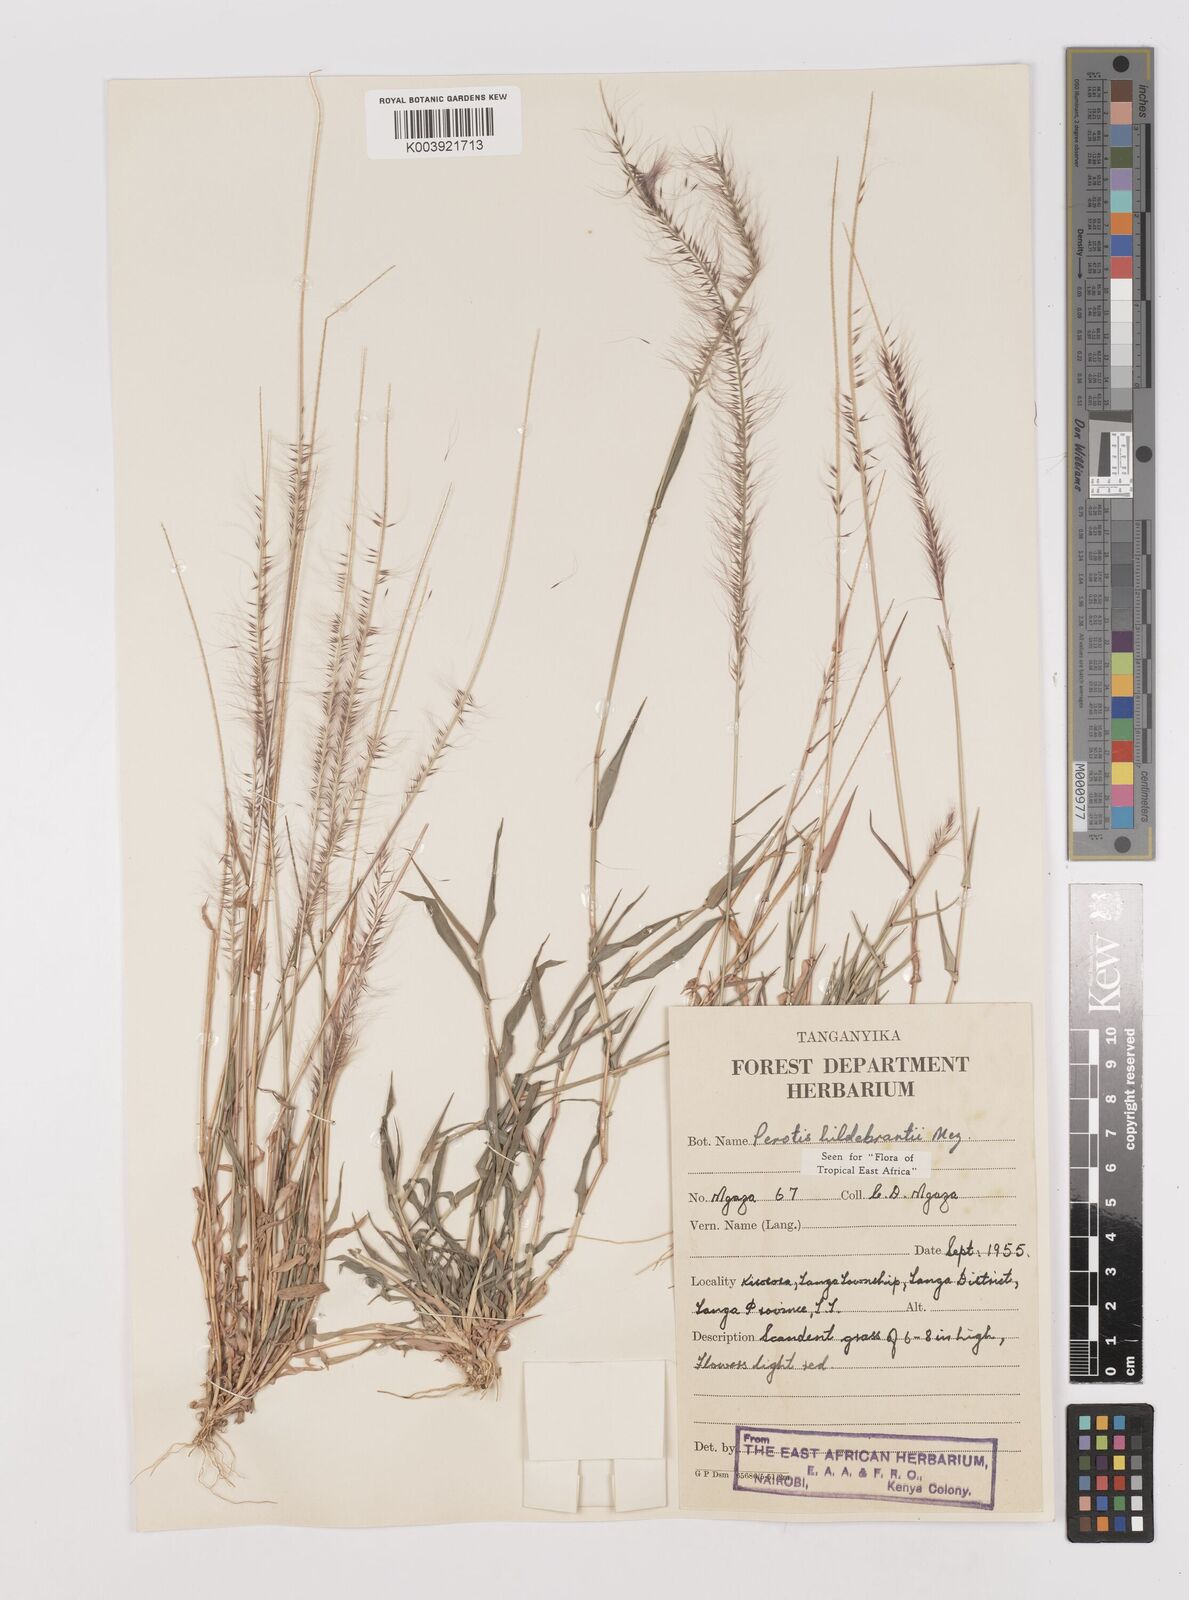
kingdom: Plantae
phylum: Tracheophyta
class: Liliopsida
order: Poales
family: Poaceae
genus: Perotis
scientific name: Perotis hildebrandtii
